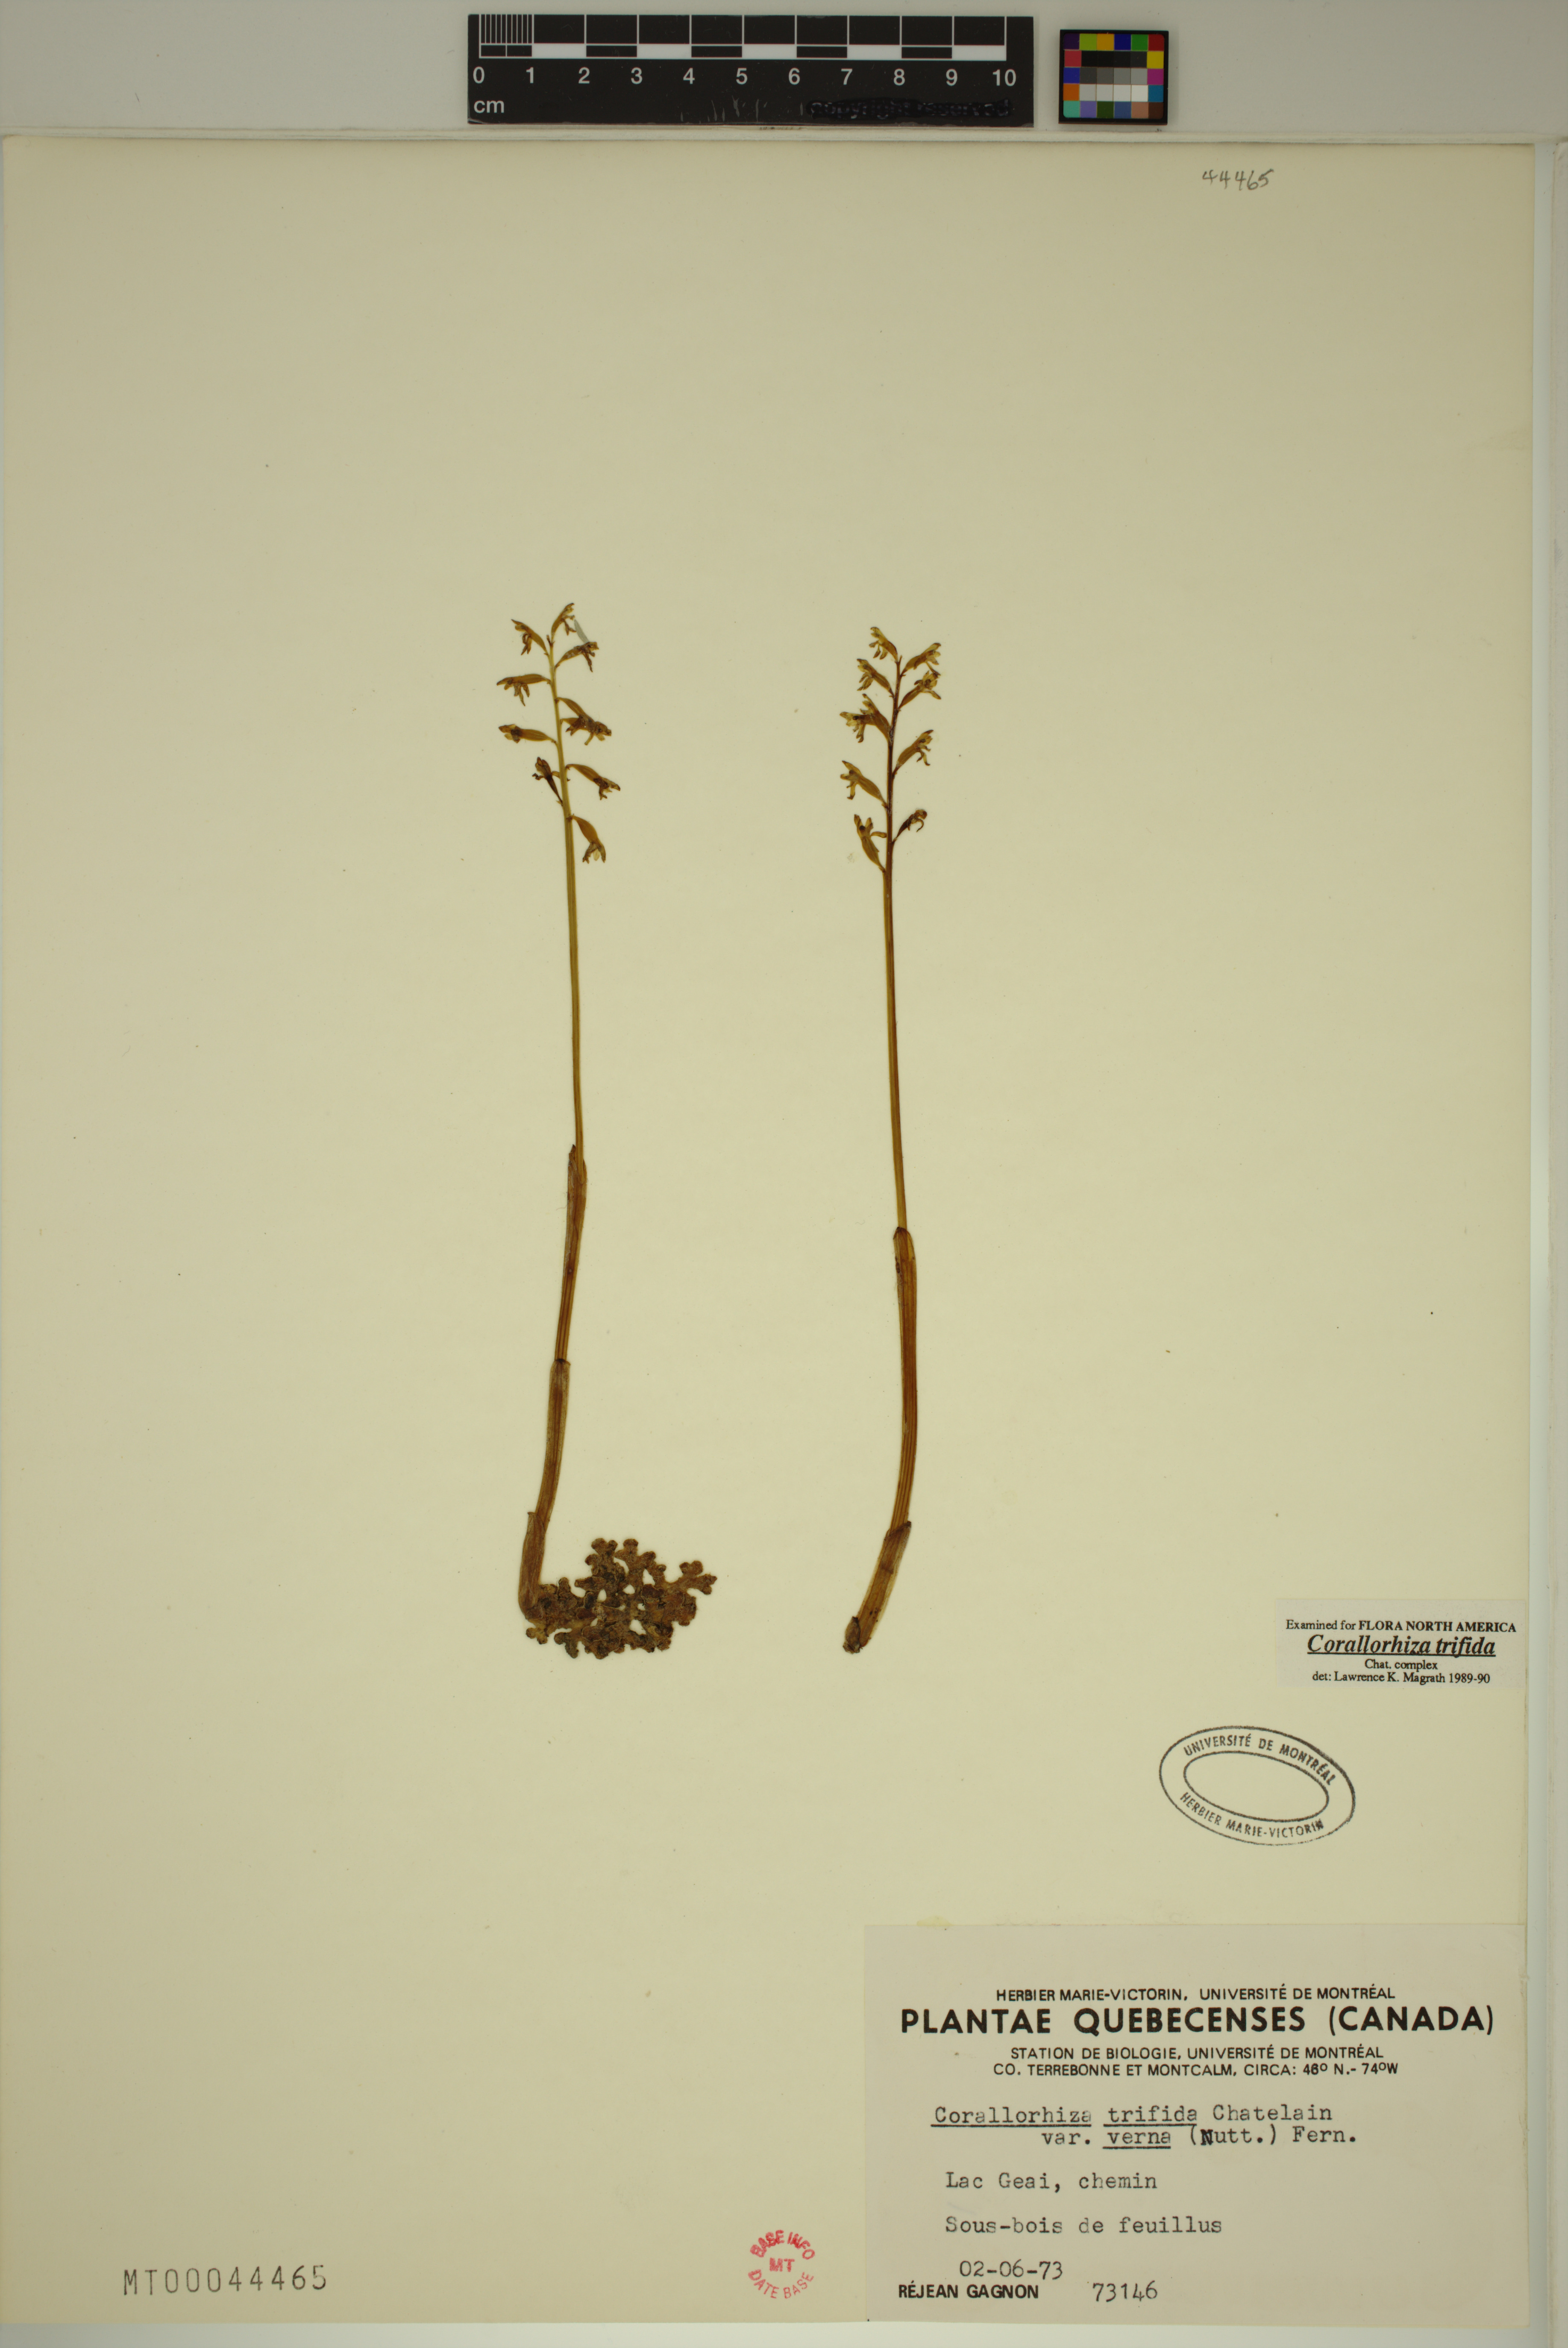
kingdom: Plantae
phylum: Tracheophyta
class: Liliopsida
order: Asparagales
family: Orchidaceae
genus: Corallorhiza
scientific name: Corallorhiza trifida
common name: Yellow coralroot
